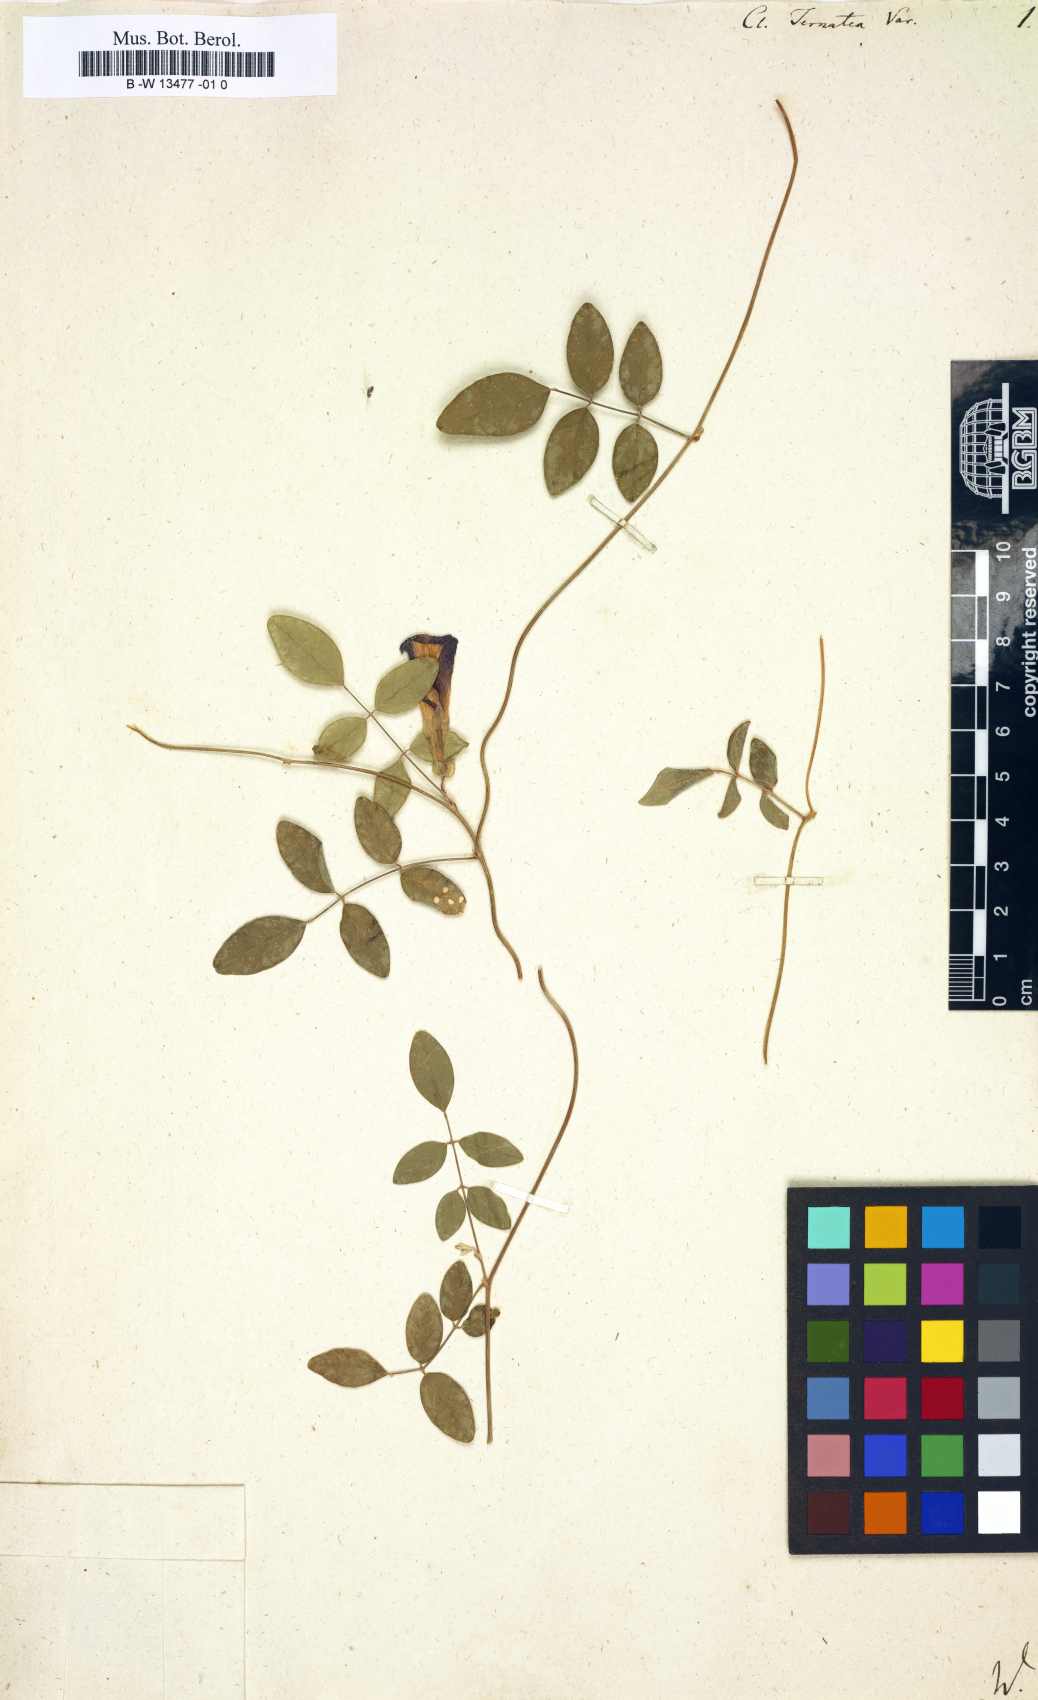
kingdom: Plantae
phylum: Tracheophyta
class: Magnoliopsida
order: Fabales
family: Fabaceae
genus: Clitoria
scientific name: Clitoria ternatea
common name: Asian pigeonwings
